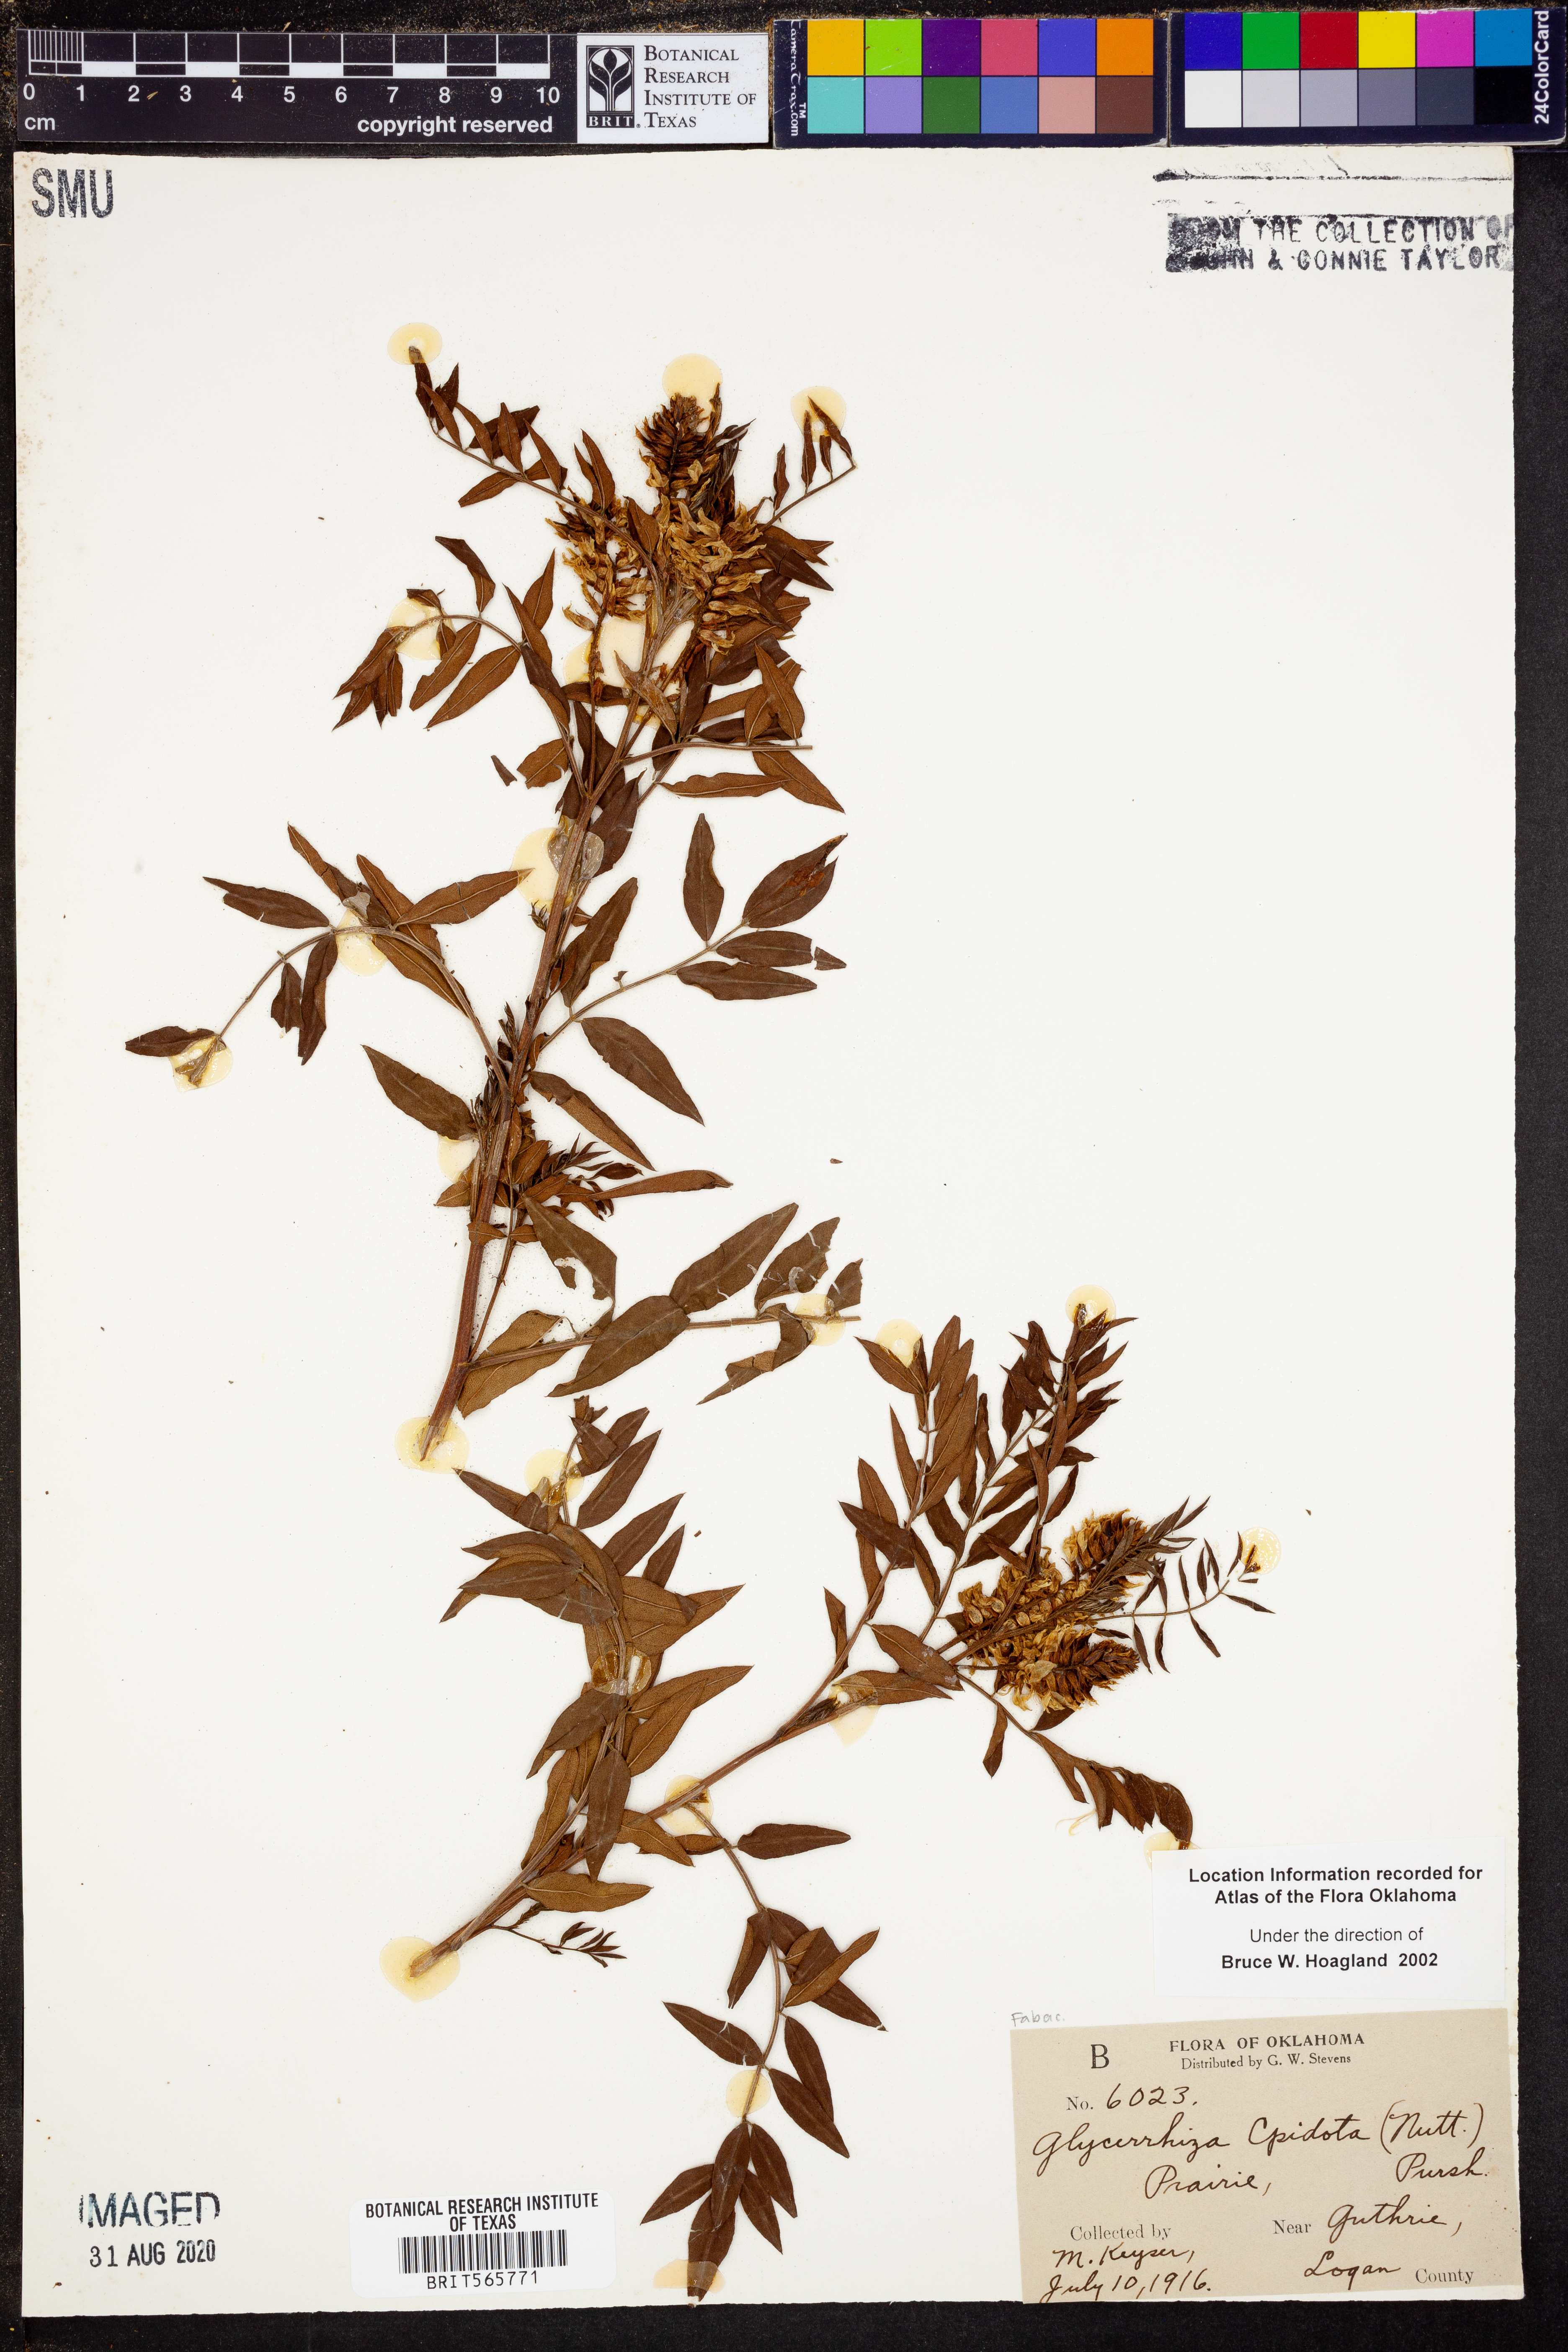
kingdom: Plantae
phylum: Tracheophyta
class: Magnoliopsida
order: Fabales
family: Fabaceae
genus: Glycyrrhiza
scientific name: Glycyrrhiza lepidota
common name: American liquorice
